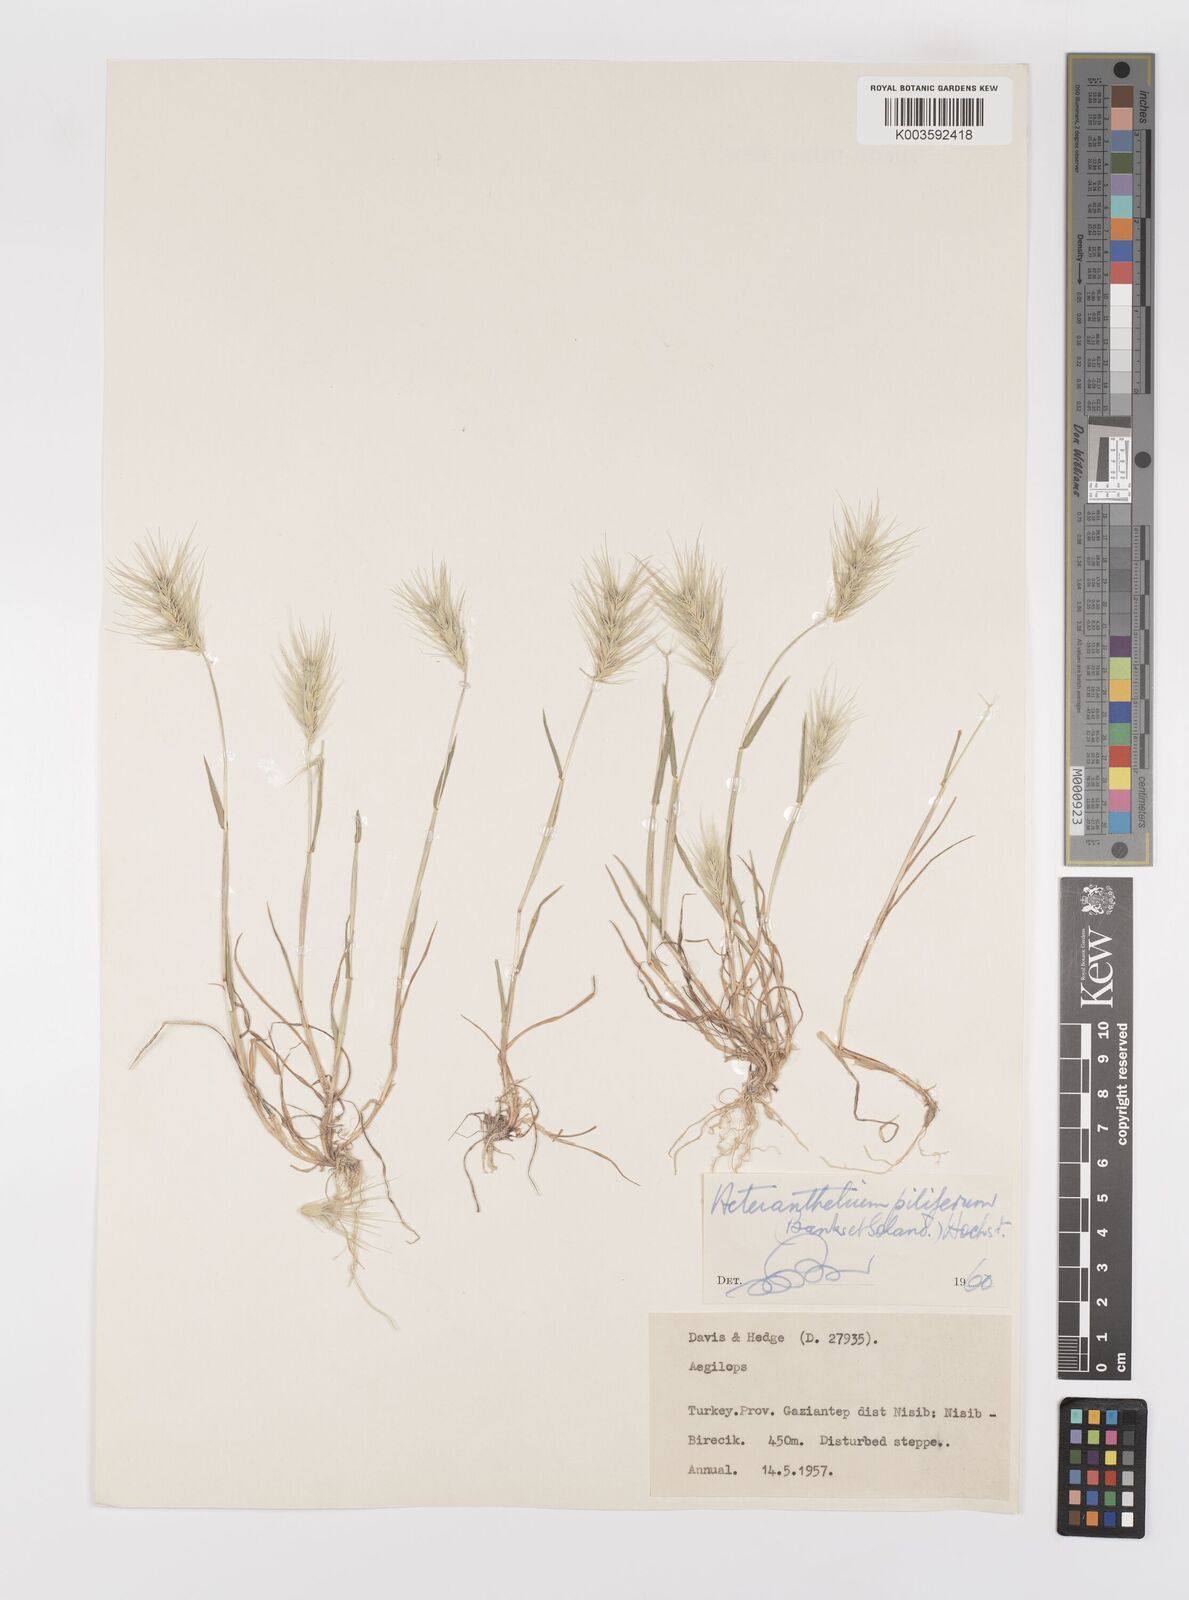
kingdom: Plantae
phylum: Tracheophyta
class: Liliopsida
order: Poales
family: Poaceae
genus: Heteranthelium
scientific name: Heteranthelium piliferum
